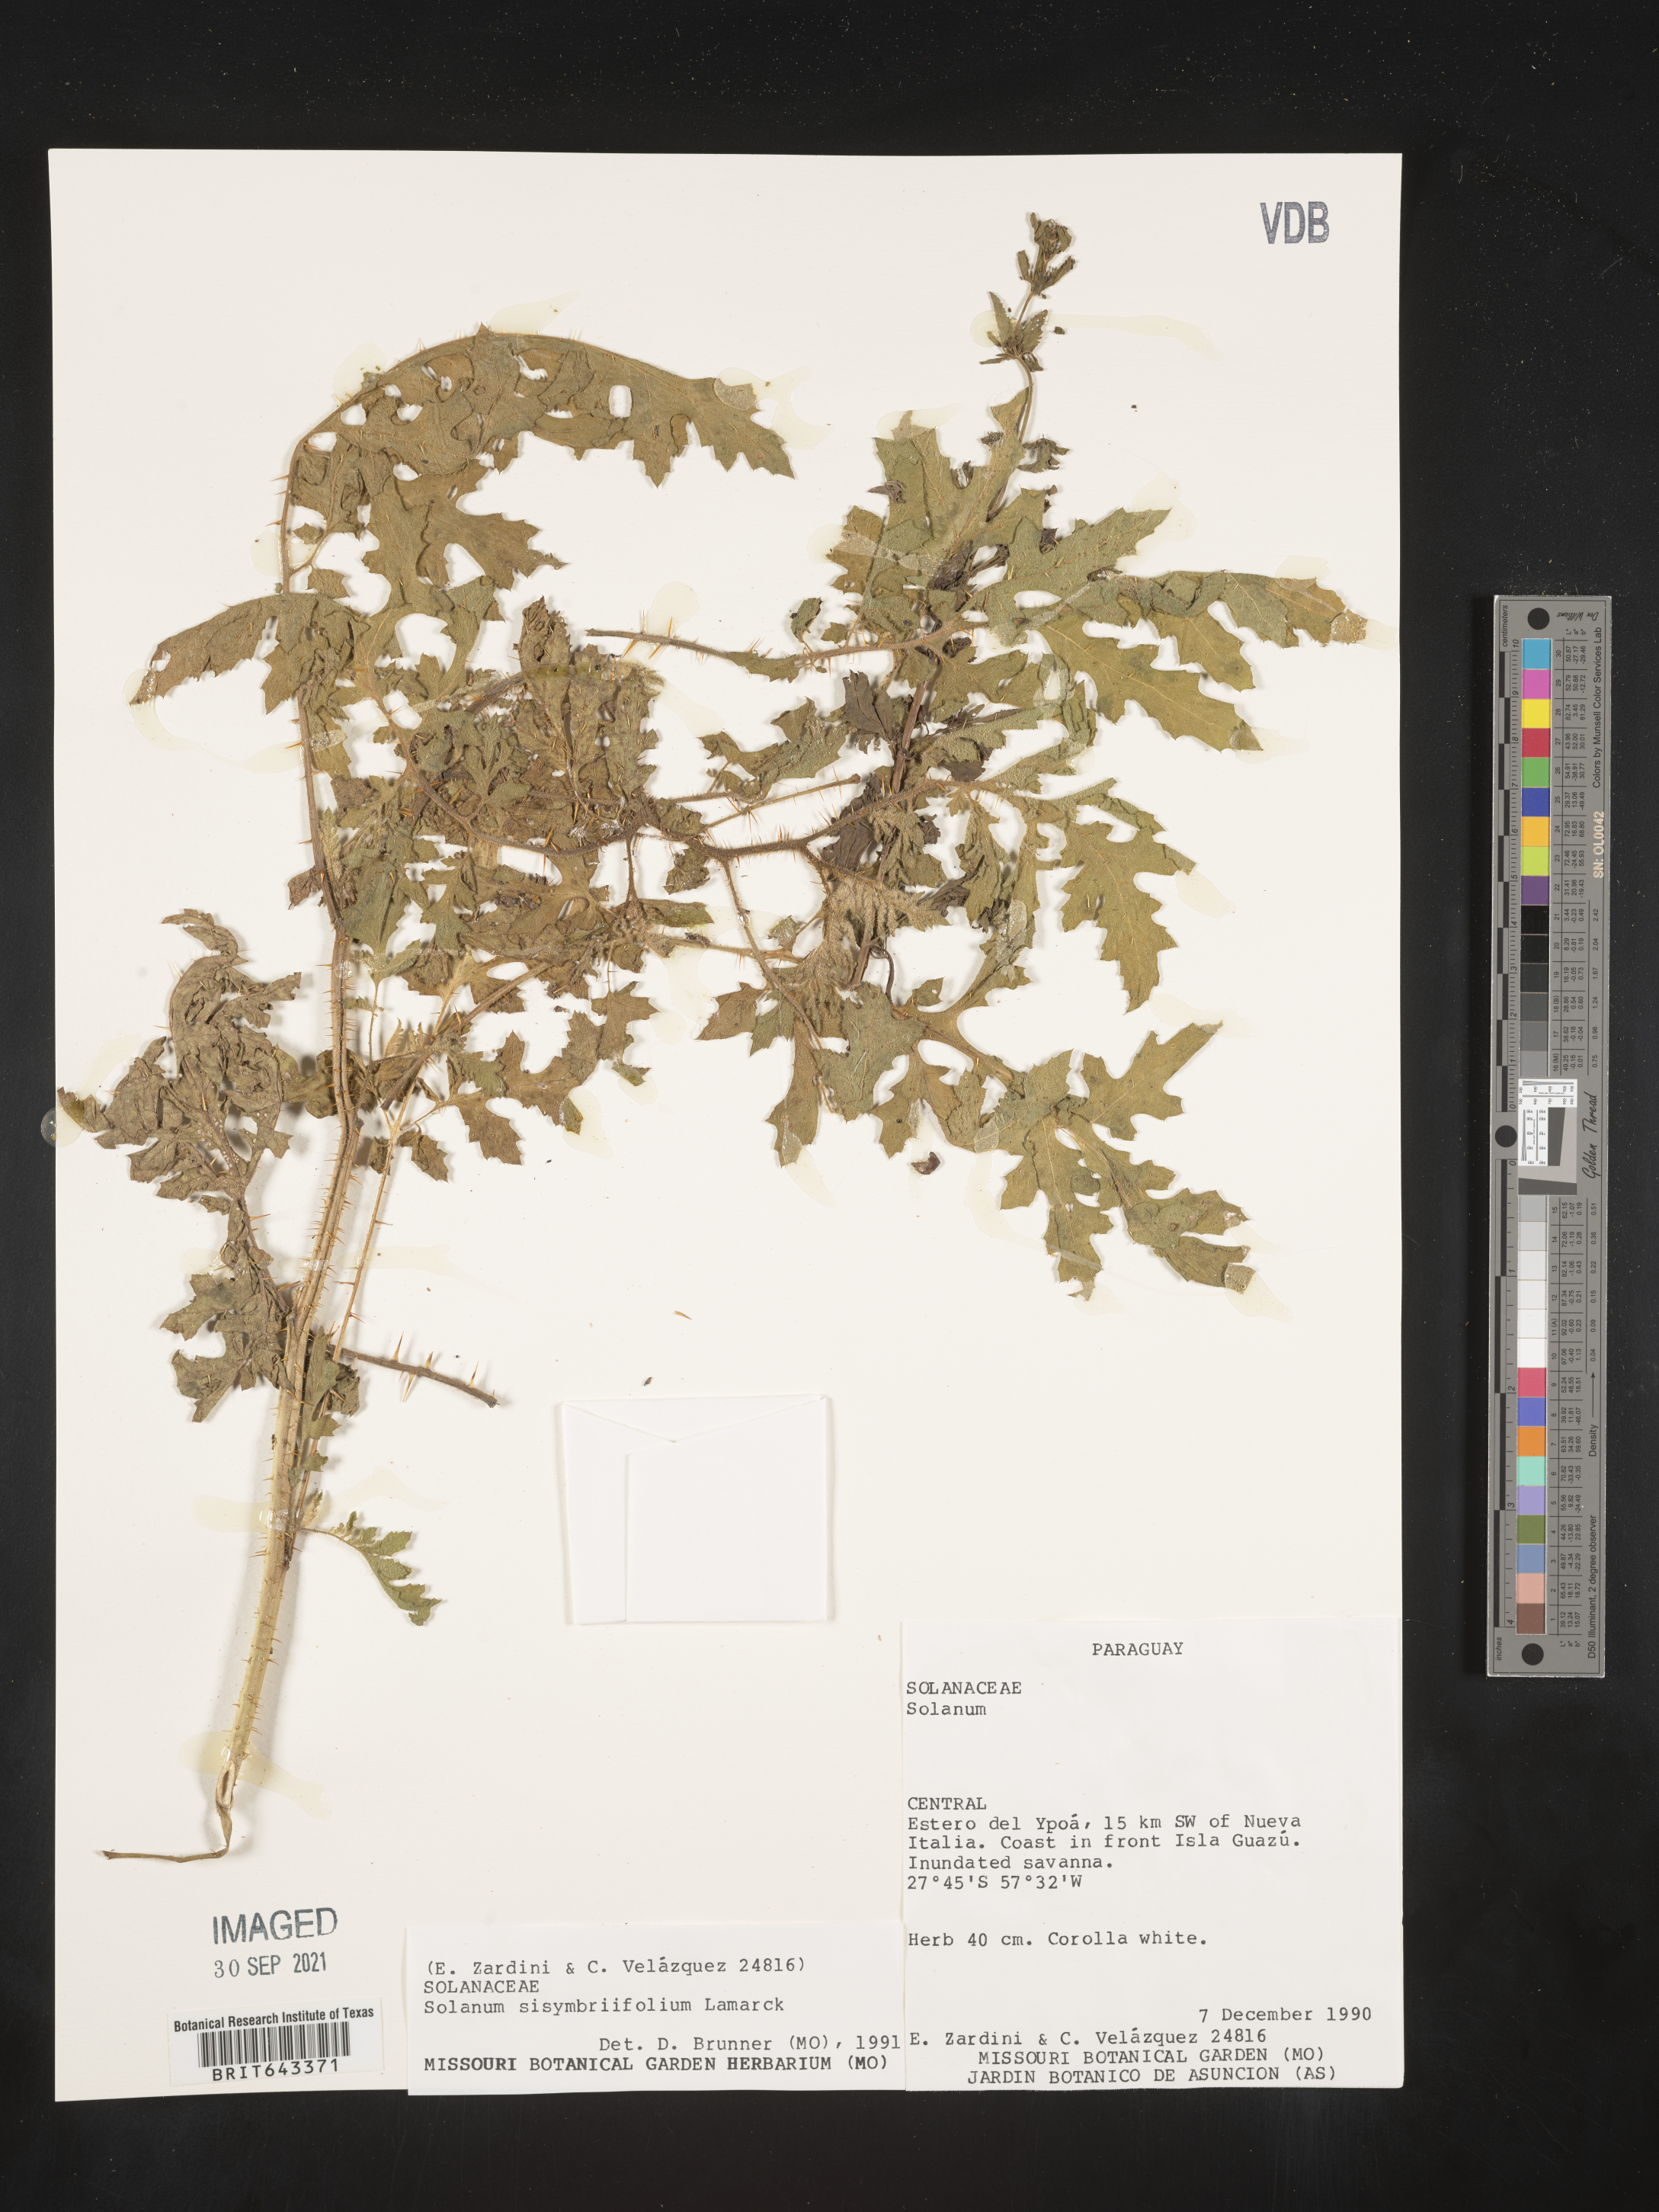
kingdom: Plantae
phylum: Tracheophyta
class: Magnoliopsida
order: Solanales
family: Solanaceae
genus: Solanum
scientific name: Solanum
